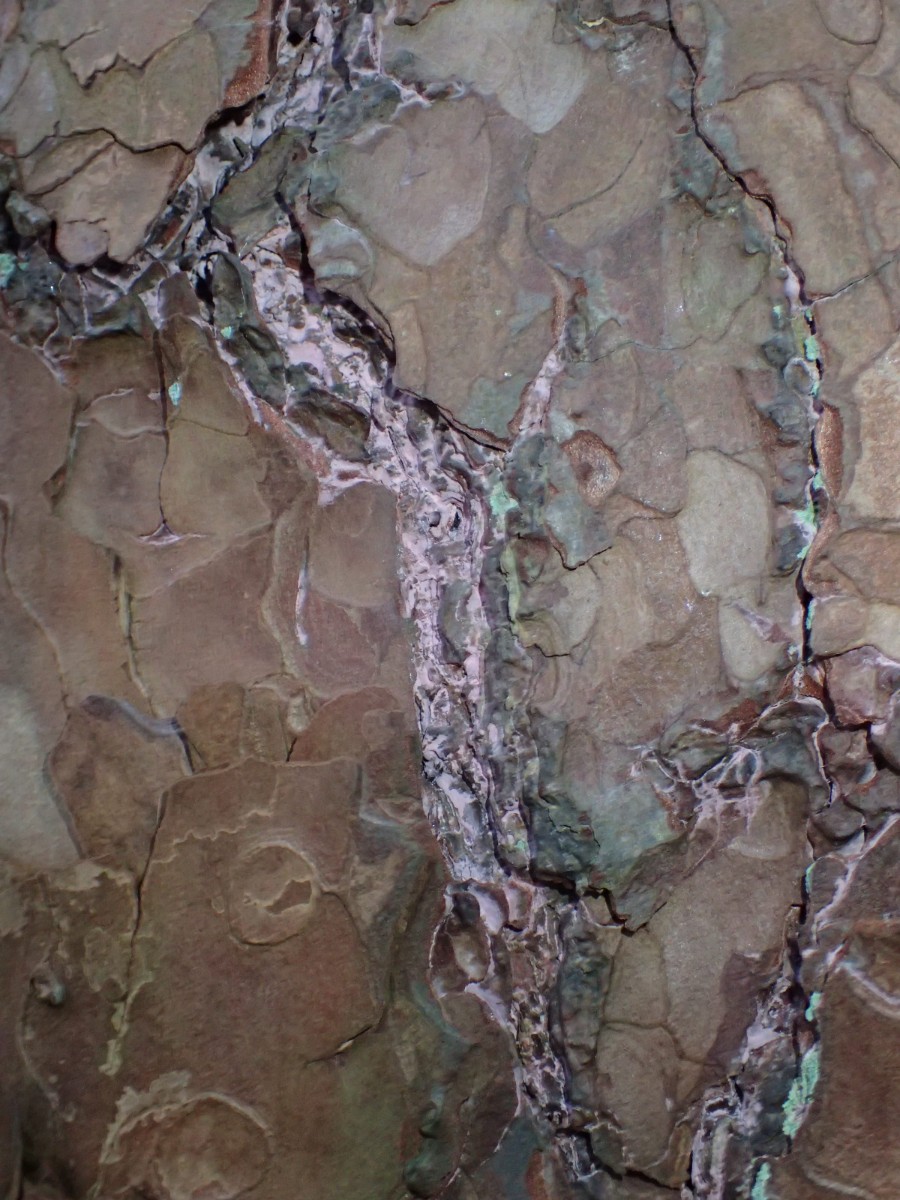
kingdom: Fungi
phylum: Basidiomycota
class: Agaricomycetes
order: Cantharellales
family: Tulasnellaceae
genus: Tulasnella
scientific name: Tulasnella violea
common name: violet ballonhinde
